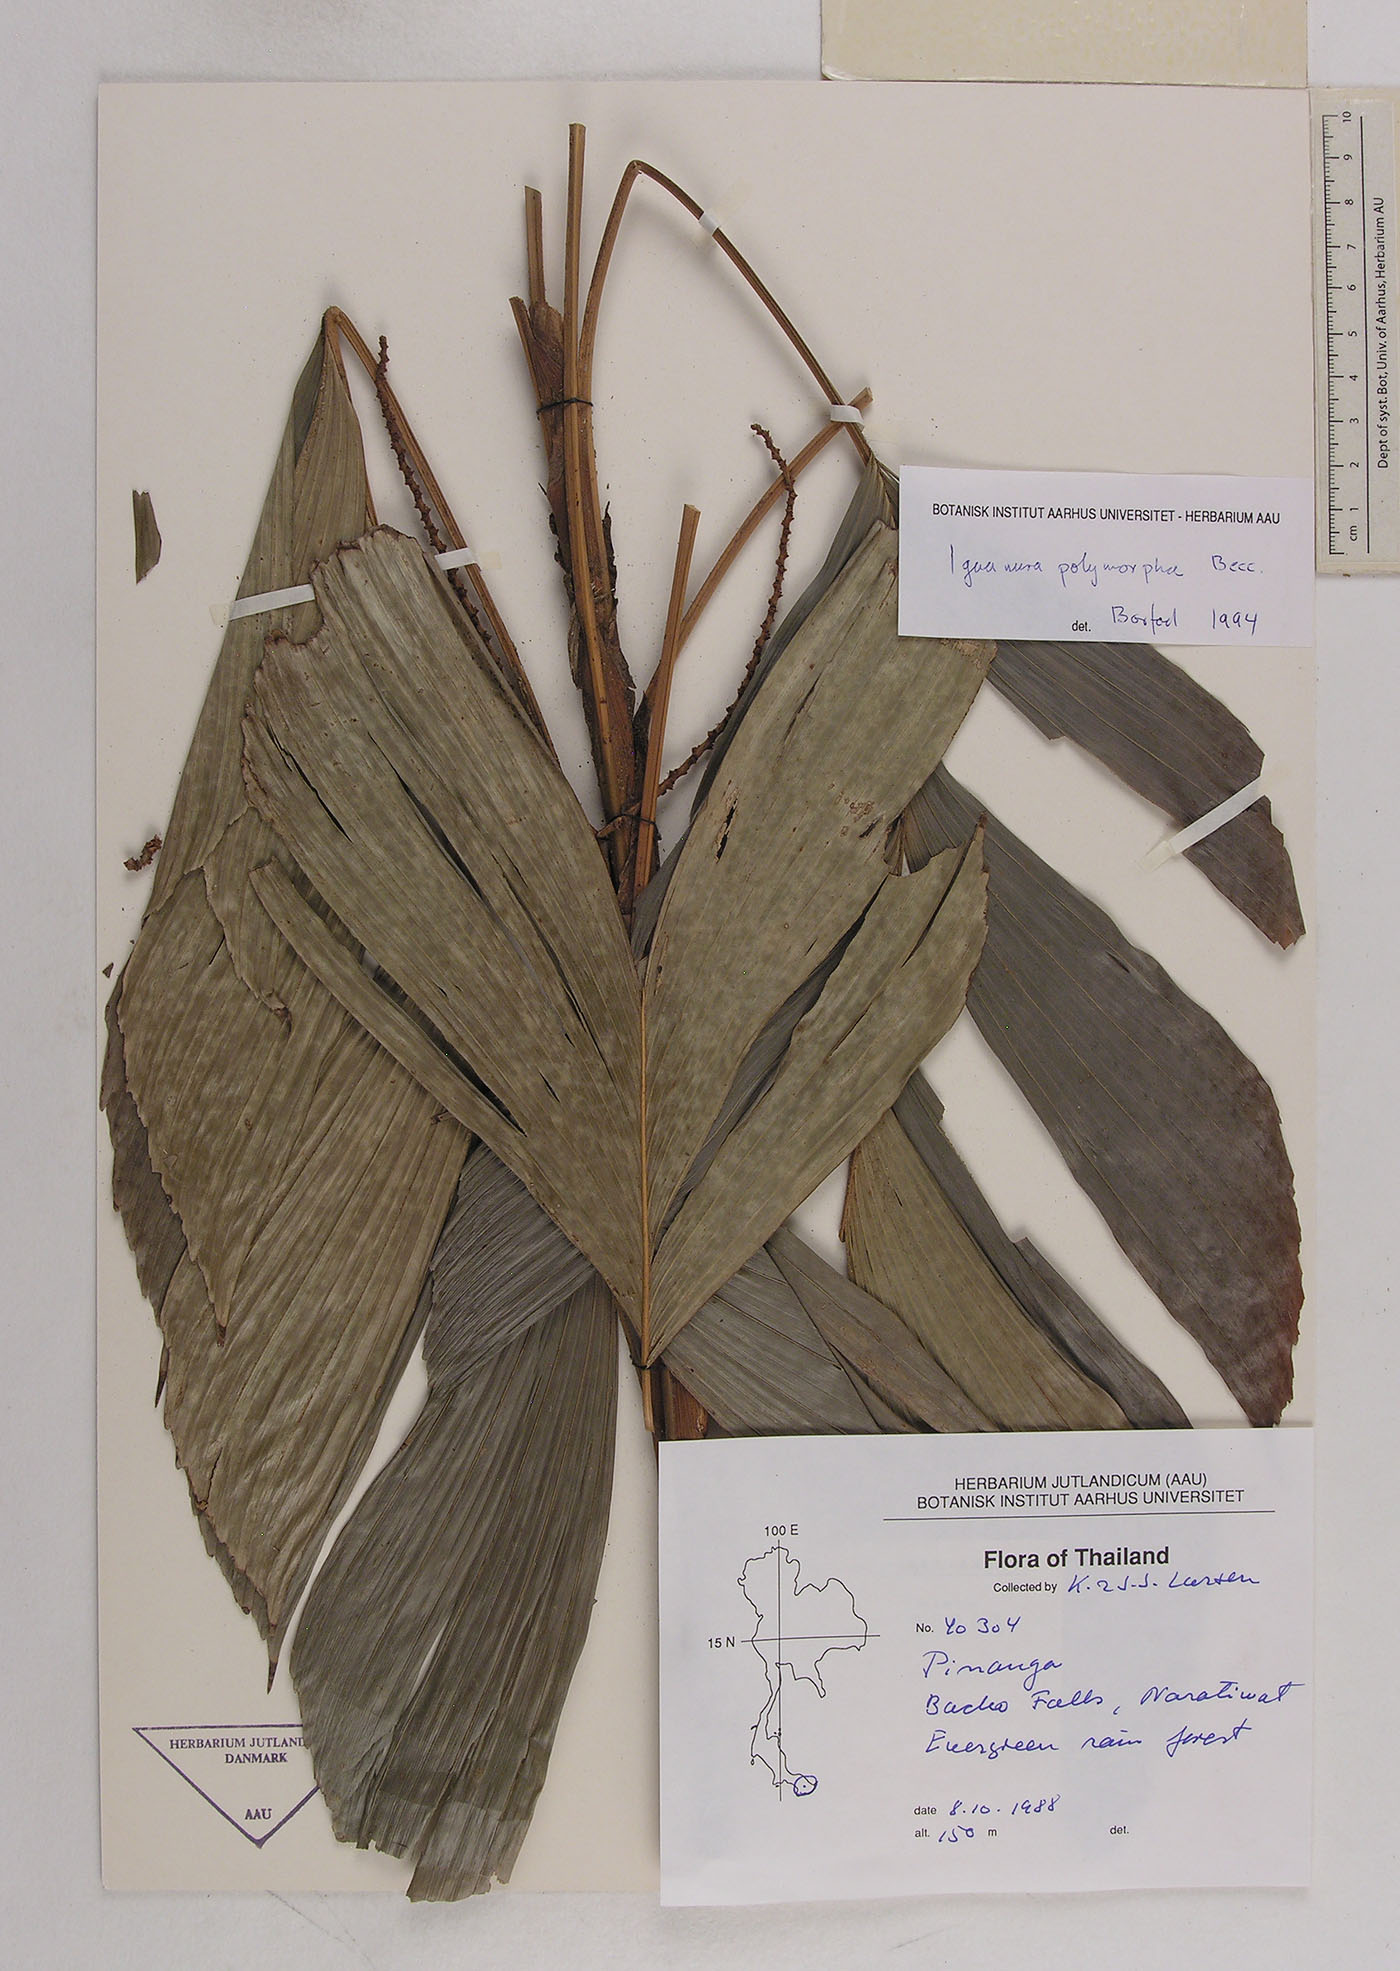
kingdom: Plantae
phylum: Tracheophyta
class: Liliopsida
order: Arecales
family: Arecaceae
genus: Iguanura
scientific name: Iguanura polymorpha
